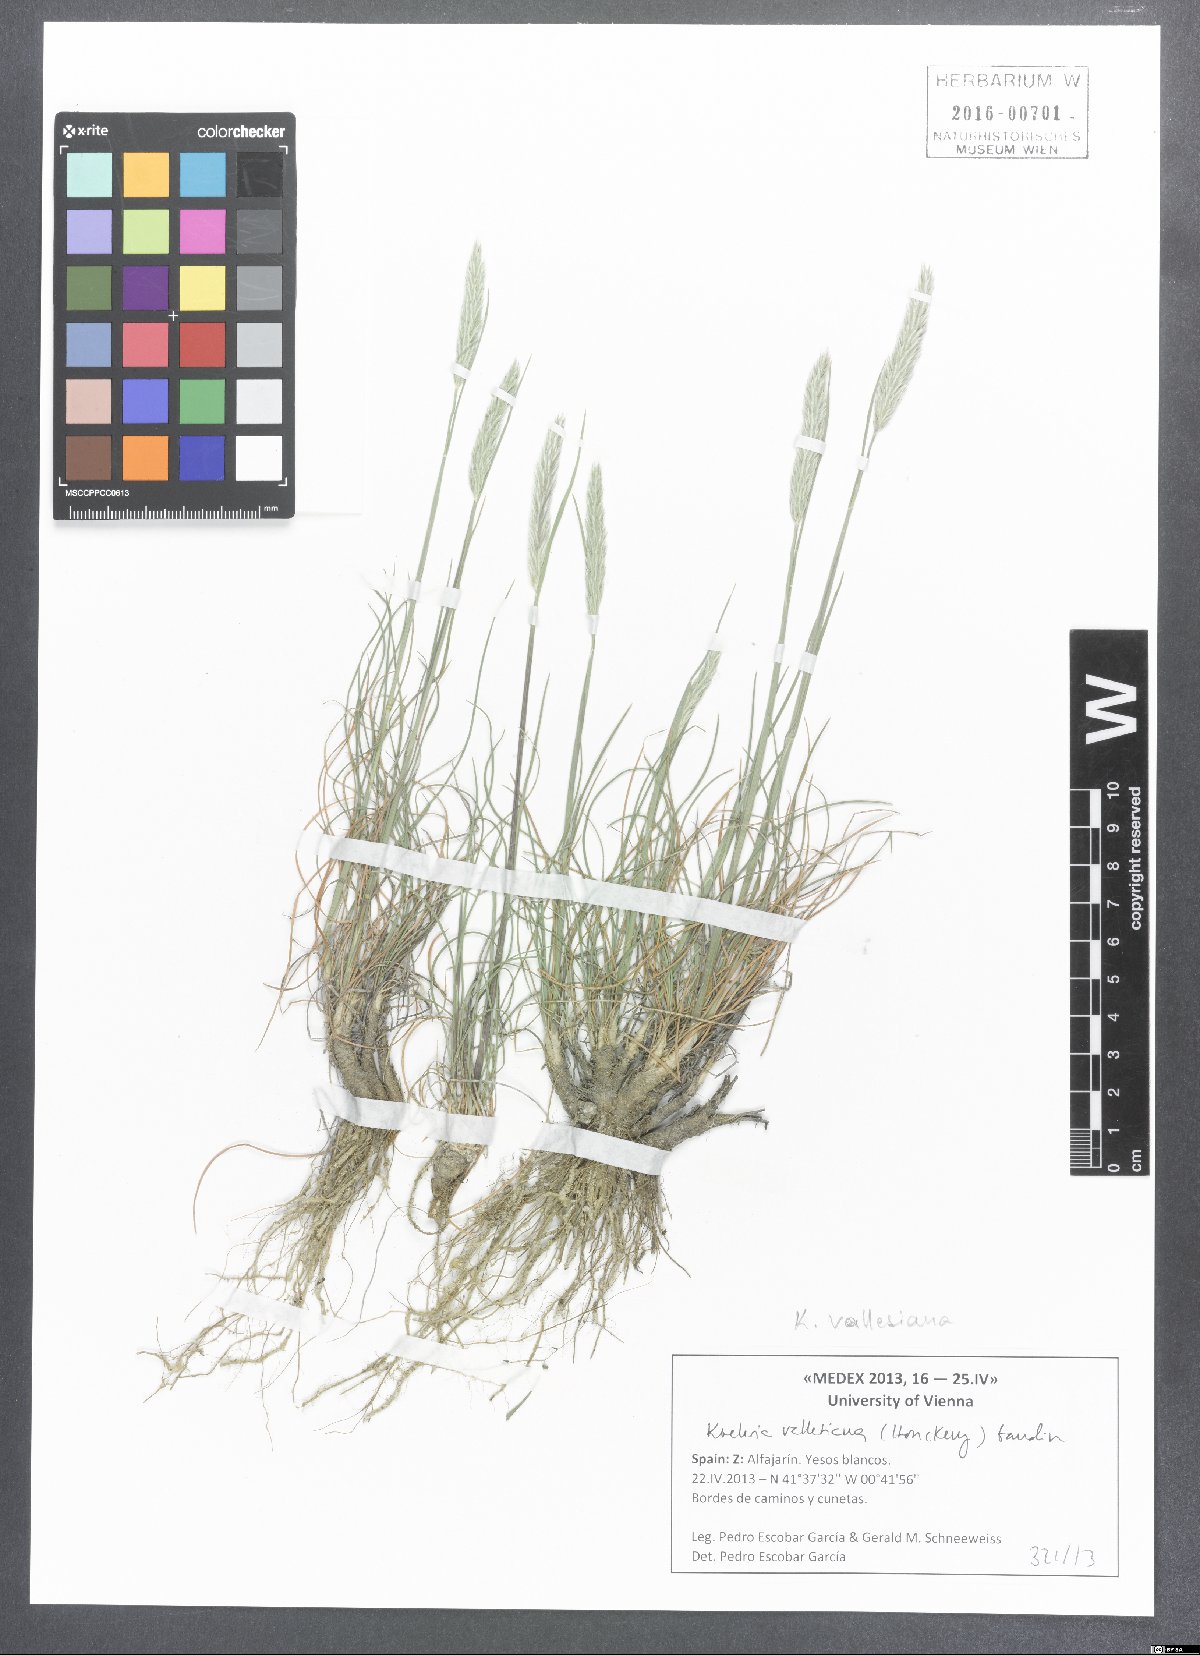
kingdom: Plantae
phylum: Tracheophyta
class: Liliopsida
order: Poales
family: Poaceae
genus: Koeleria
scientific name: Koeleria vallesiana
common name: Somerset hair-grass
